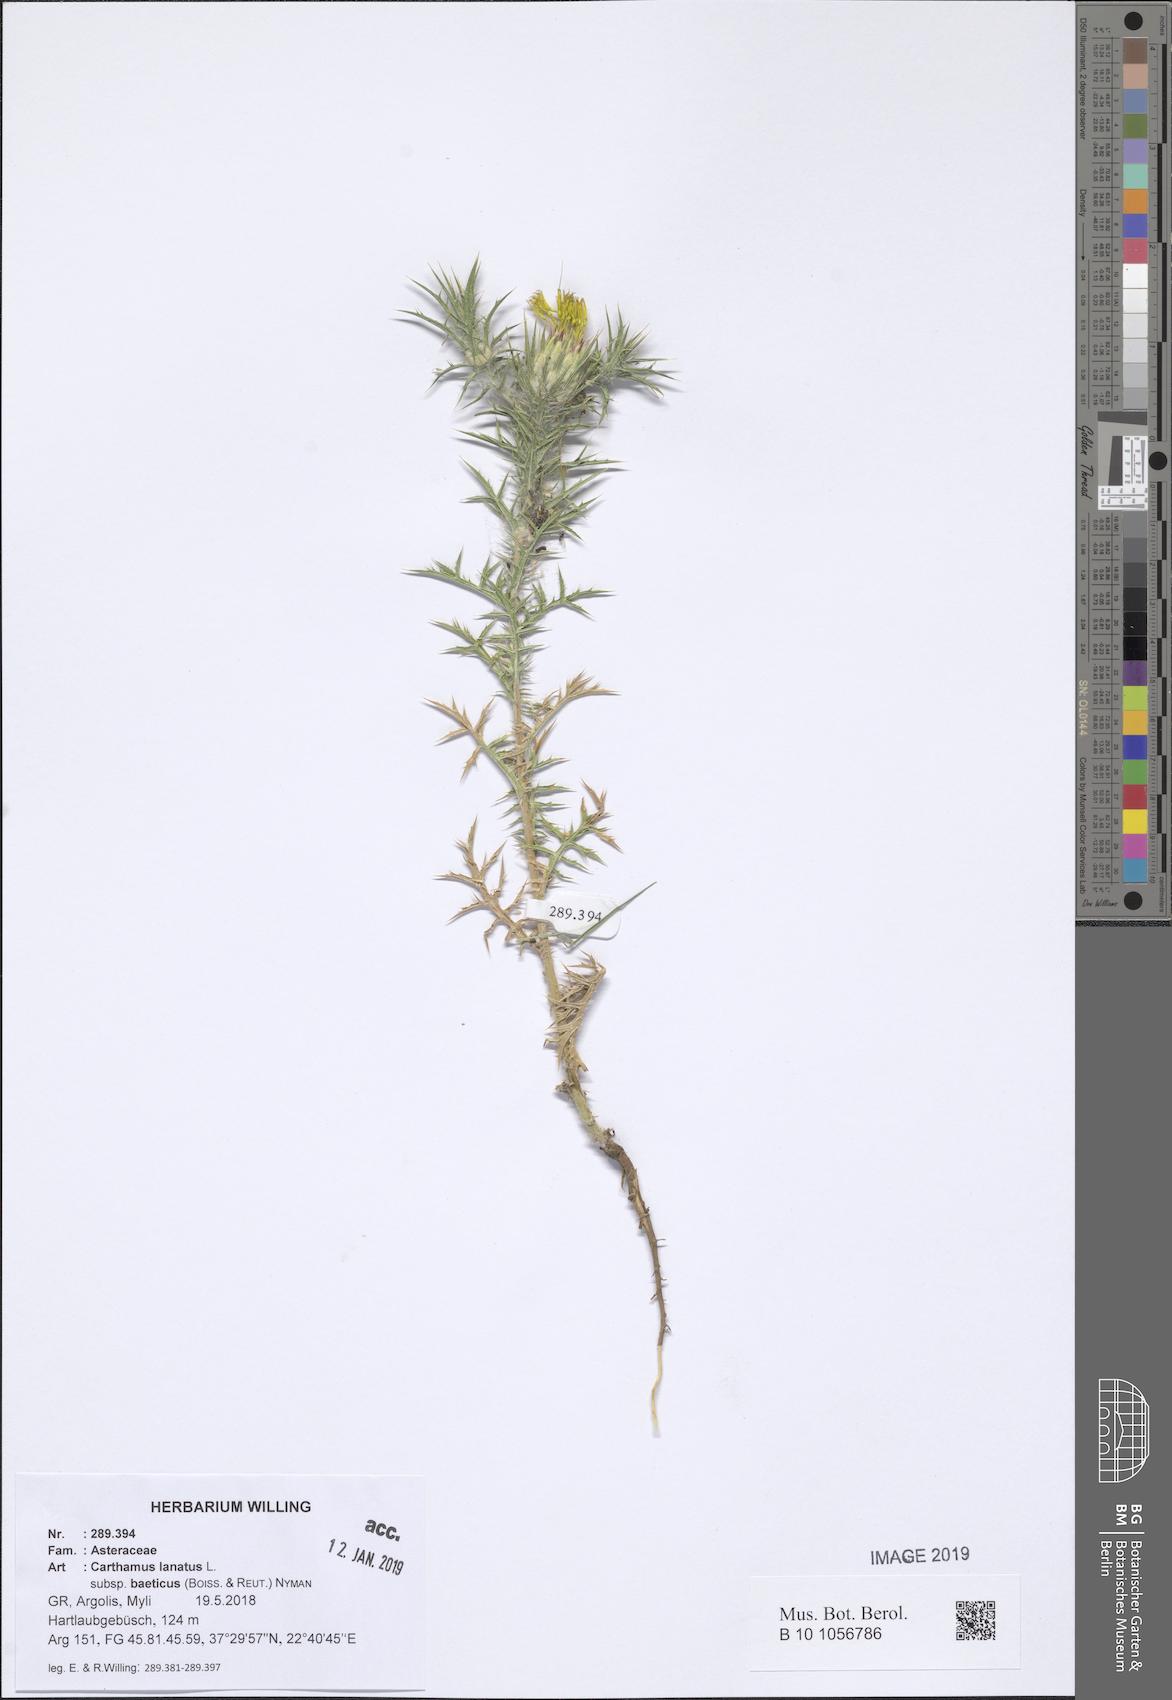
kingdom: Plantae
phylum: Tracheophyta
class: Magnoliopsida
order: Asterales
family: Asteraceae
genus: Carthamus
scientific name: Carthamus creticus
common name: Smooth distaff thistle
